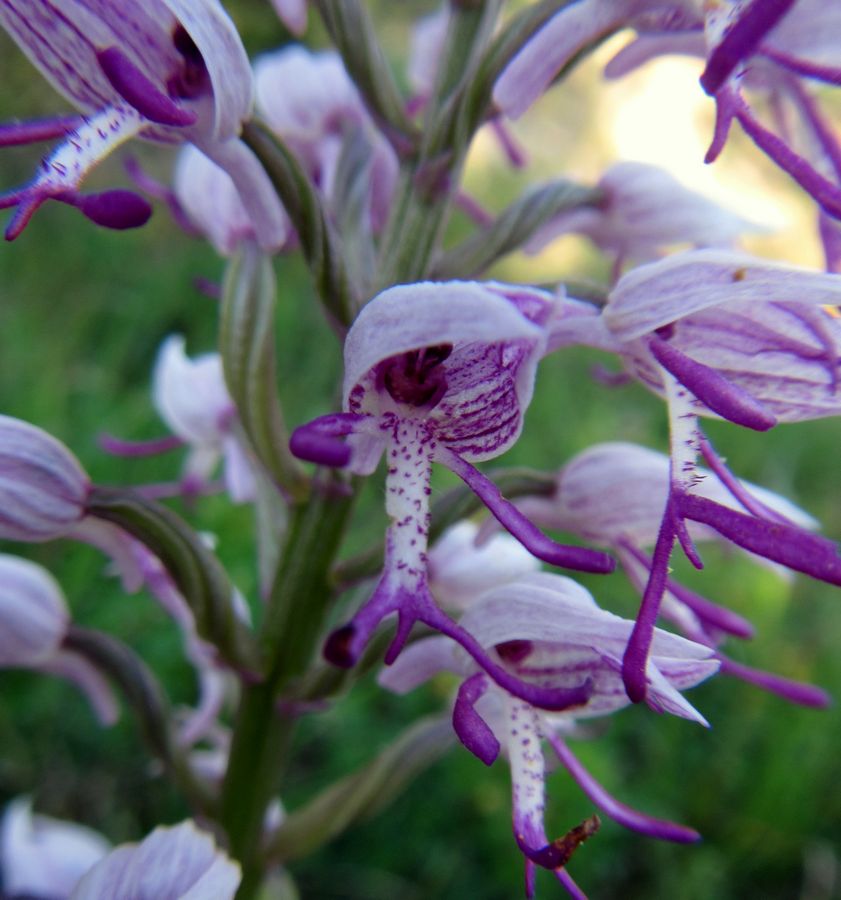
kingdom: Plantae
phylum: Tracheophyta
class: Liliopsida
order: Asparagales
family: Orchidaceae
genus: Orchis
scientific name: Orchis simia
